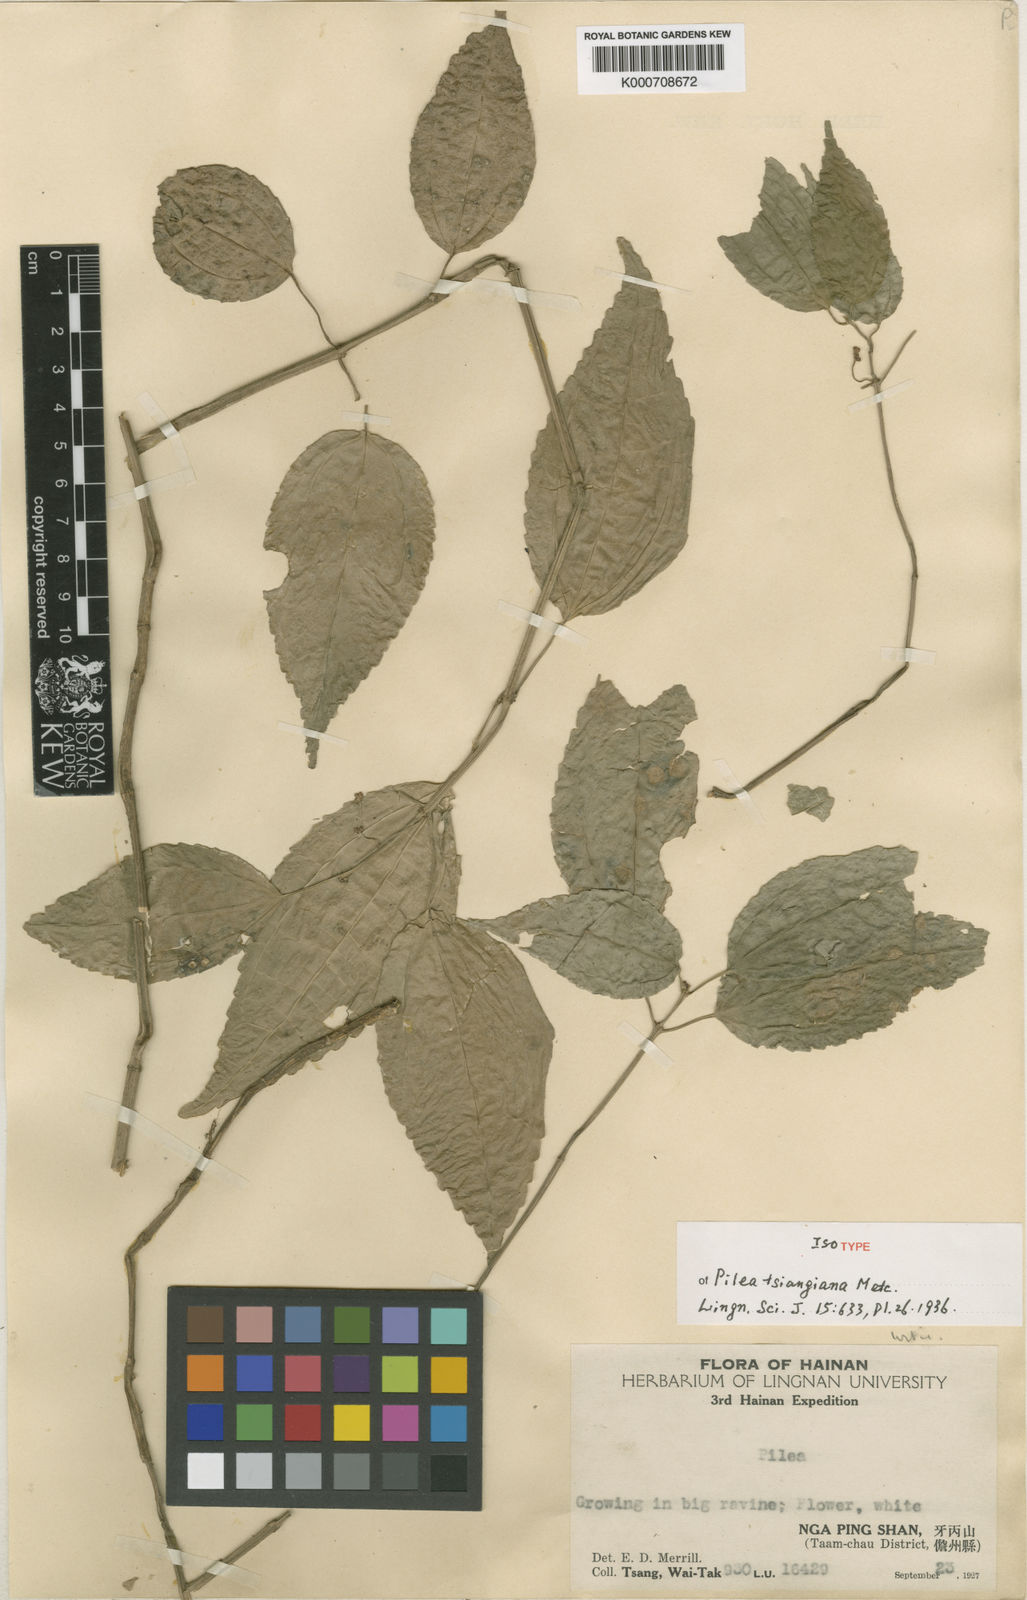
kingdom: Plantae
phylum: Tracheophyta
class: Magnoliopsida
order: Rosales
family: Urticaceae
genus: Pilea
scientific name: Pilea tsiangiana
